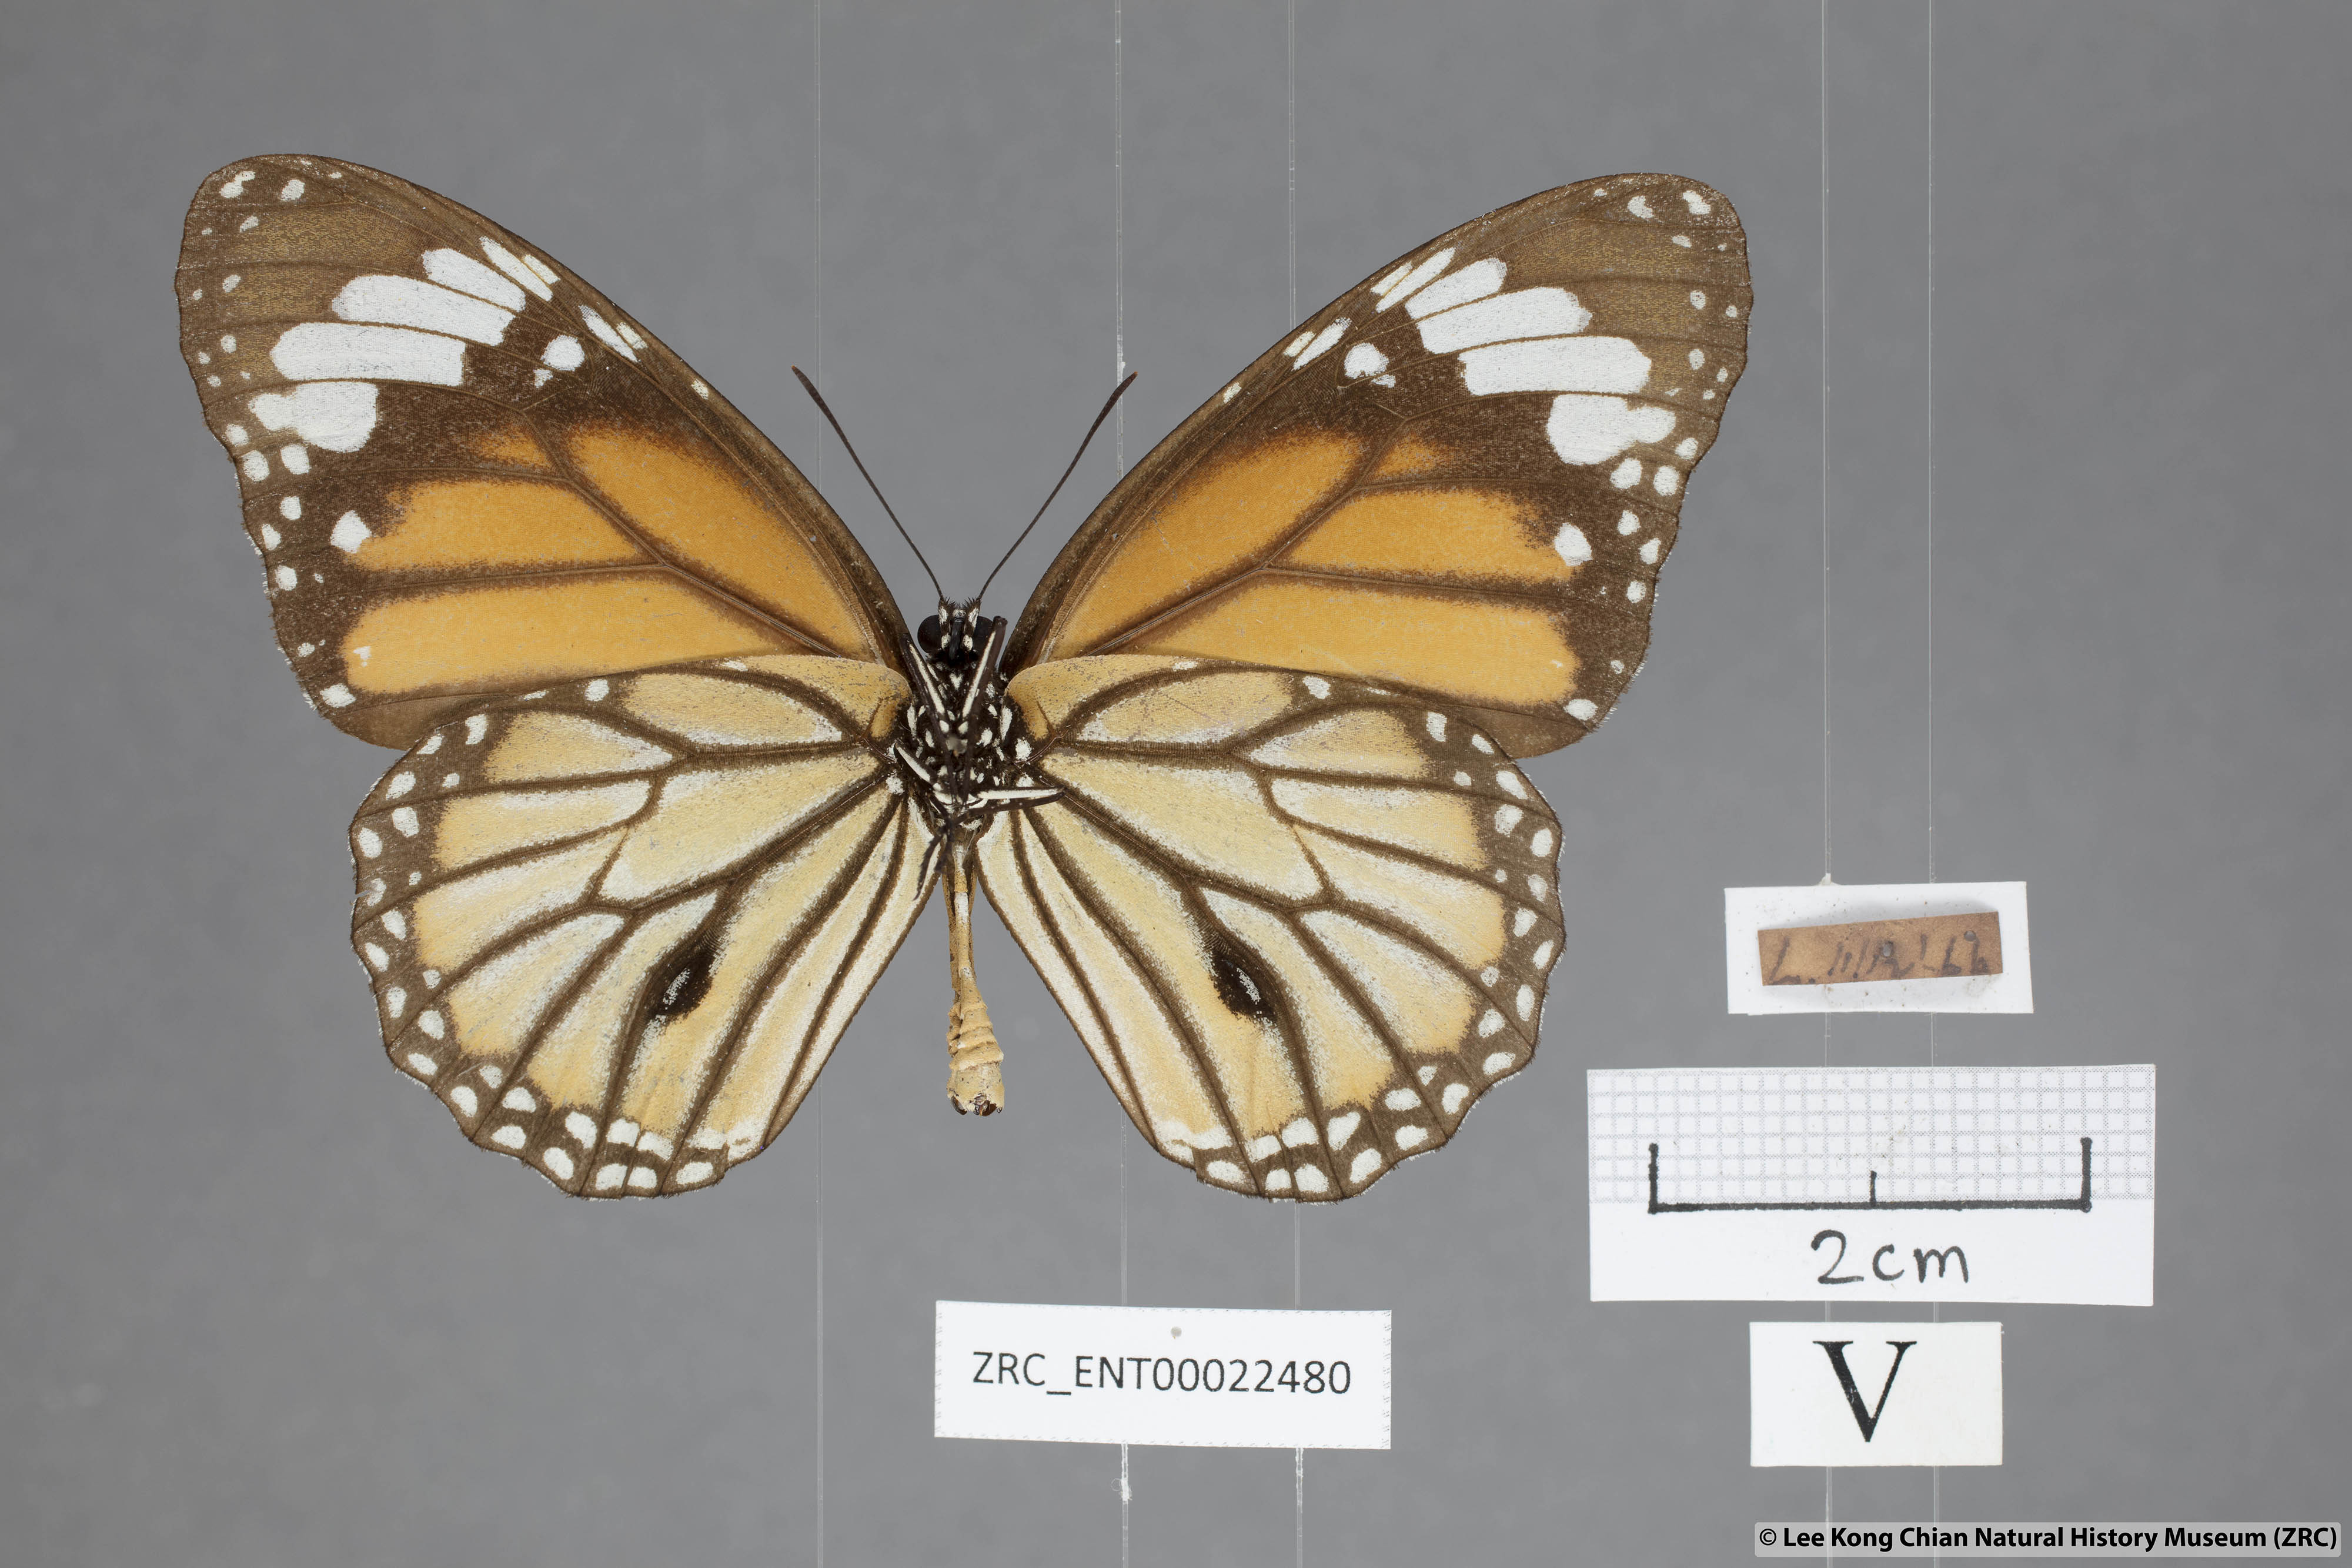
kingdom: Animalia
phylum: Arthropoda
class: Insecta
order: Lepidoptera
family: Nymphalidae
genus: Danaus
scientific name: Danaus genutia
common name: Common tiger butterfly
